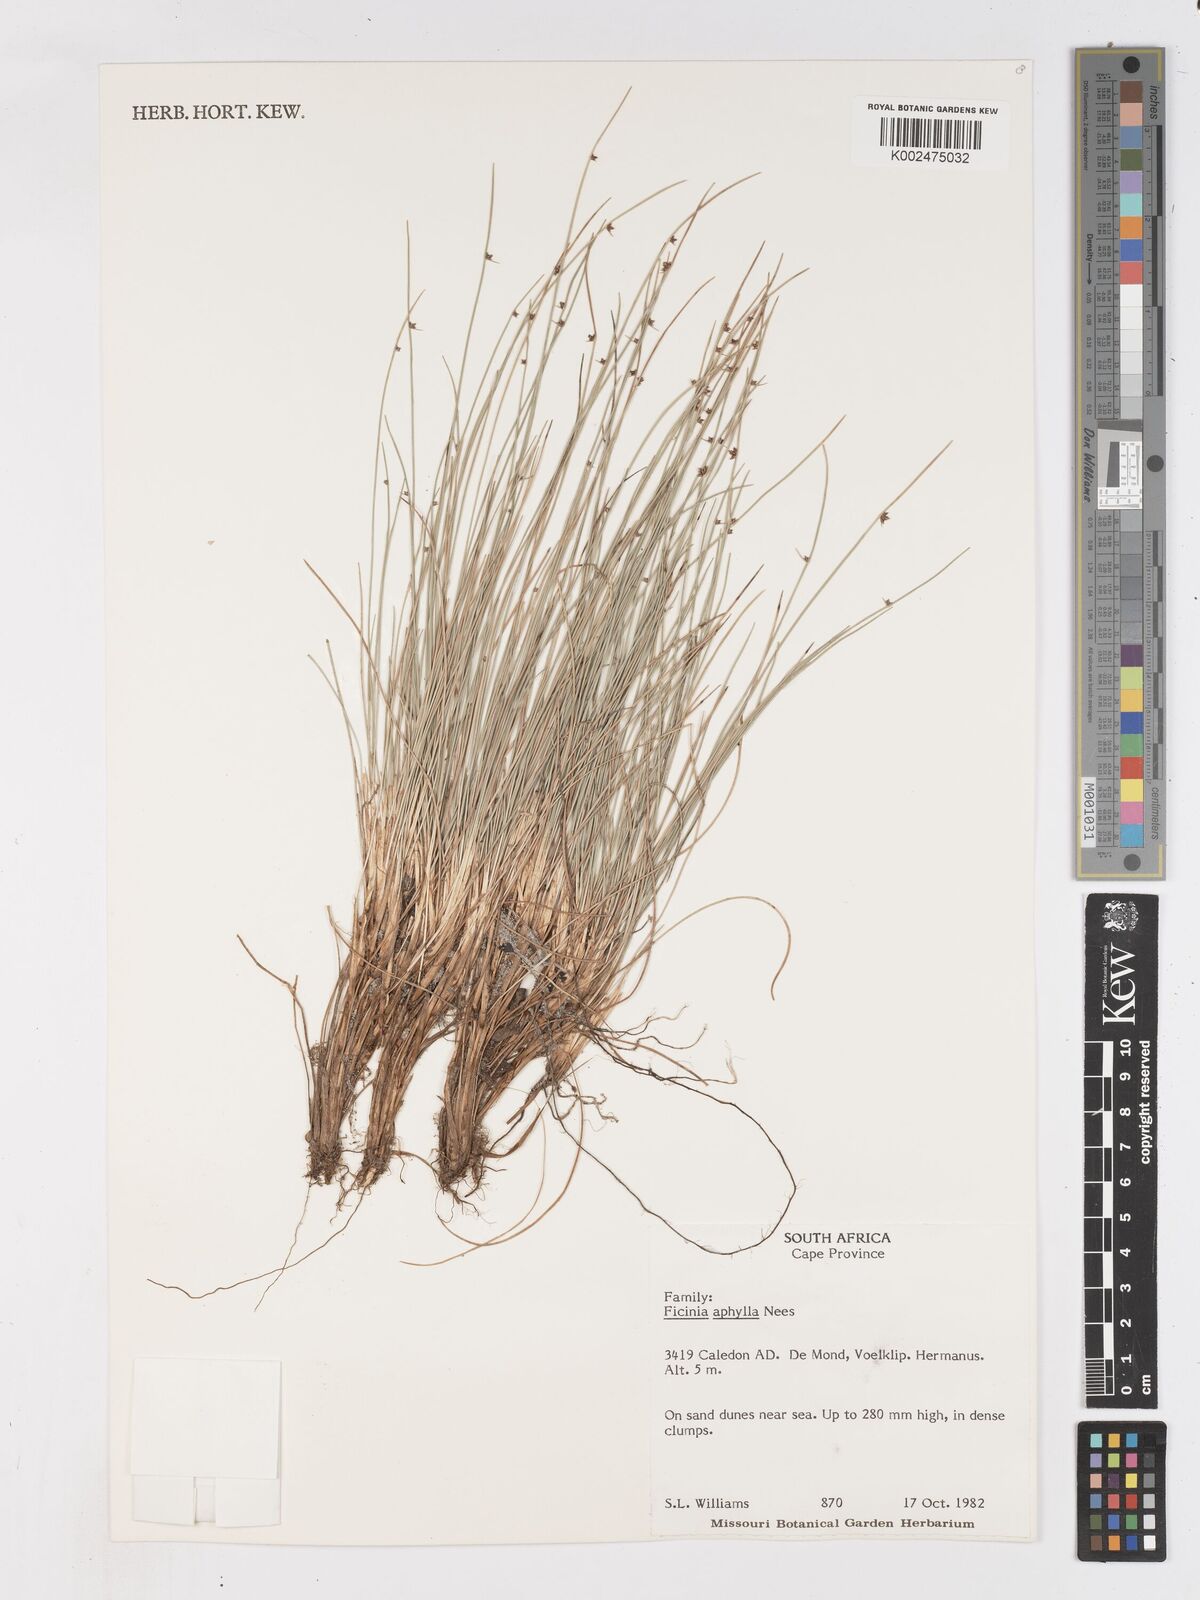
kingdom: Plantae
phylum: Tracheophyta
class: Liliopsida
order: Poales
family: Cyperaceae
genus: Ficinia
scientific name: Ficinia lateralis
